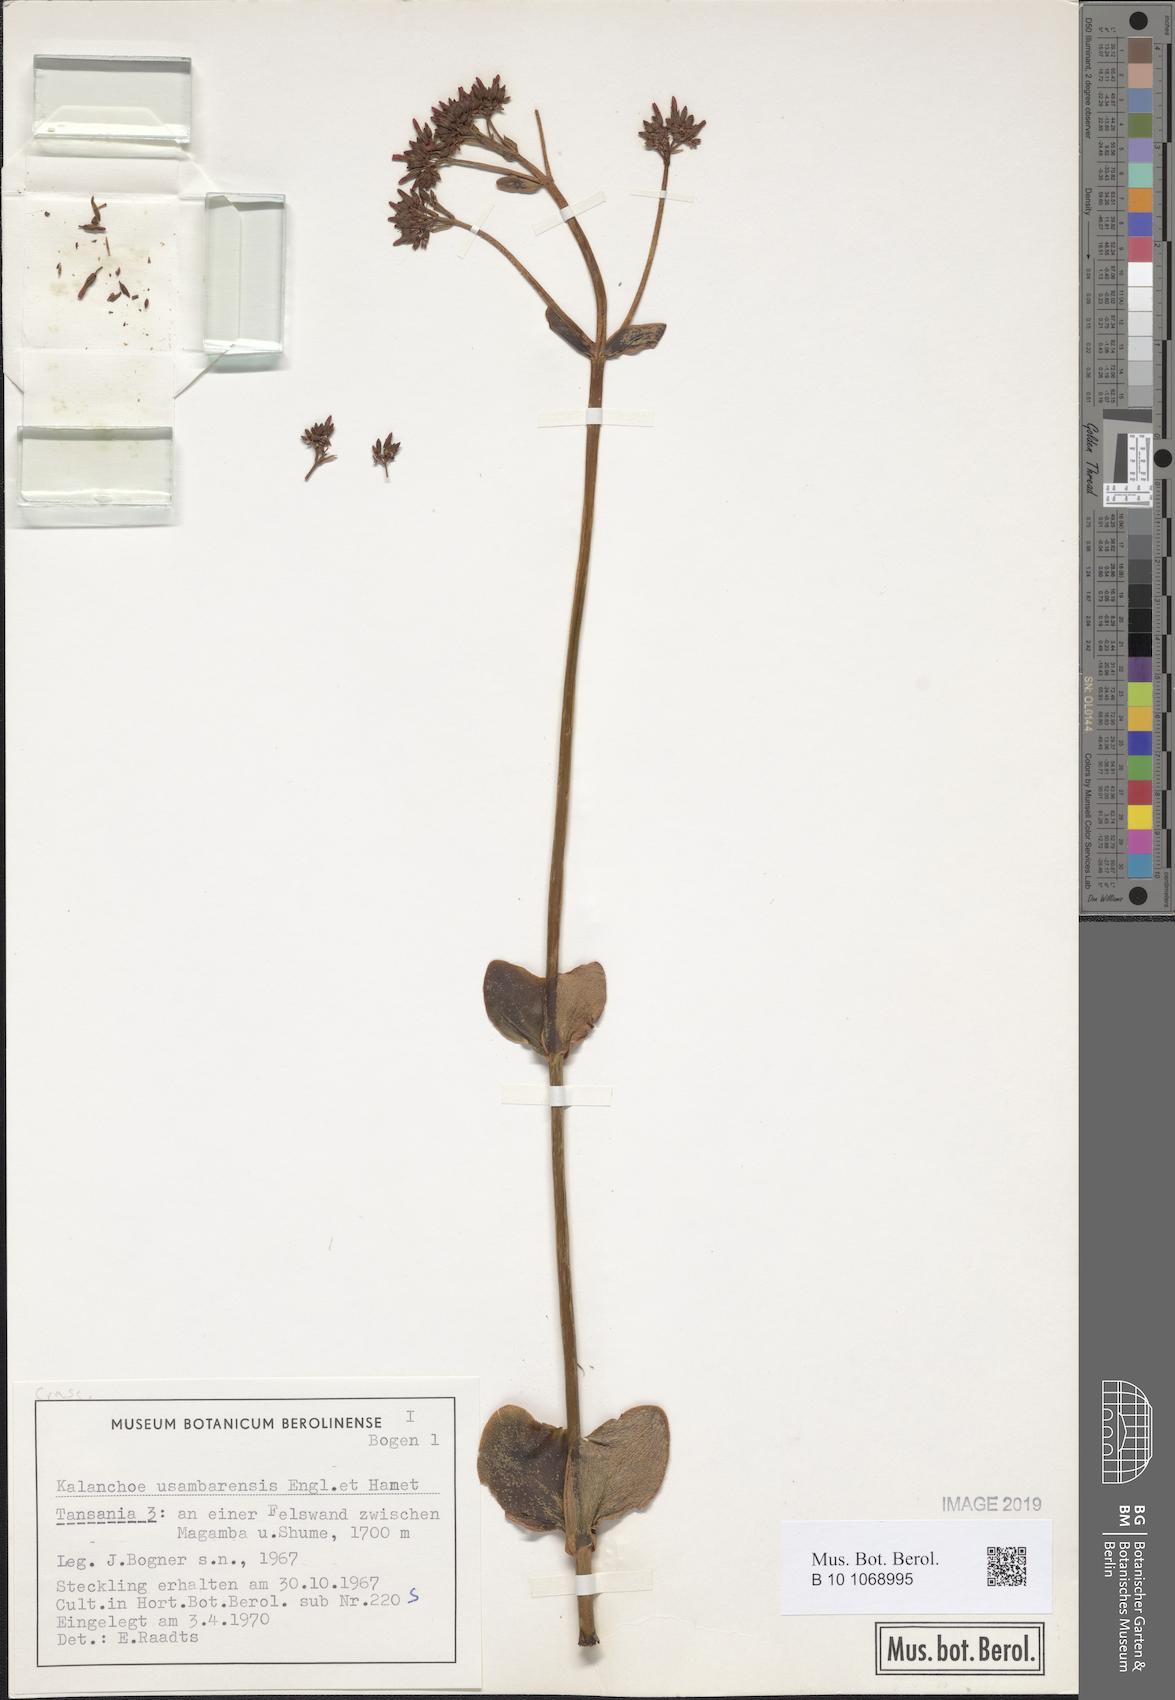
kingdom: Plantae
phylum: Tracheophyta
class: Magnoliopsida
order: Saxifragales
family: Crassulaceae
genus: Kalanchoe
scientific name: Kalanchoe usambarensis
